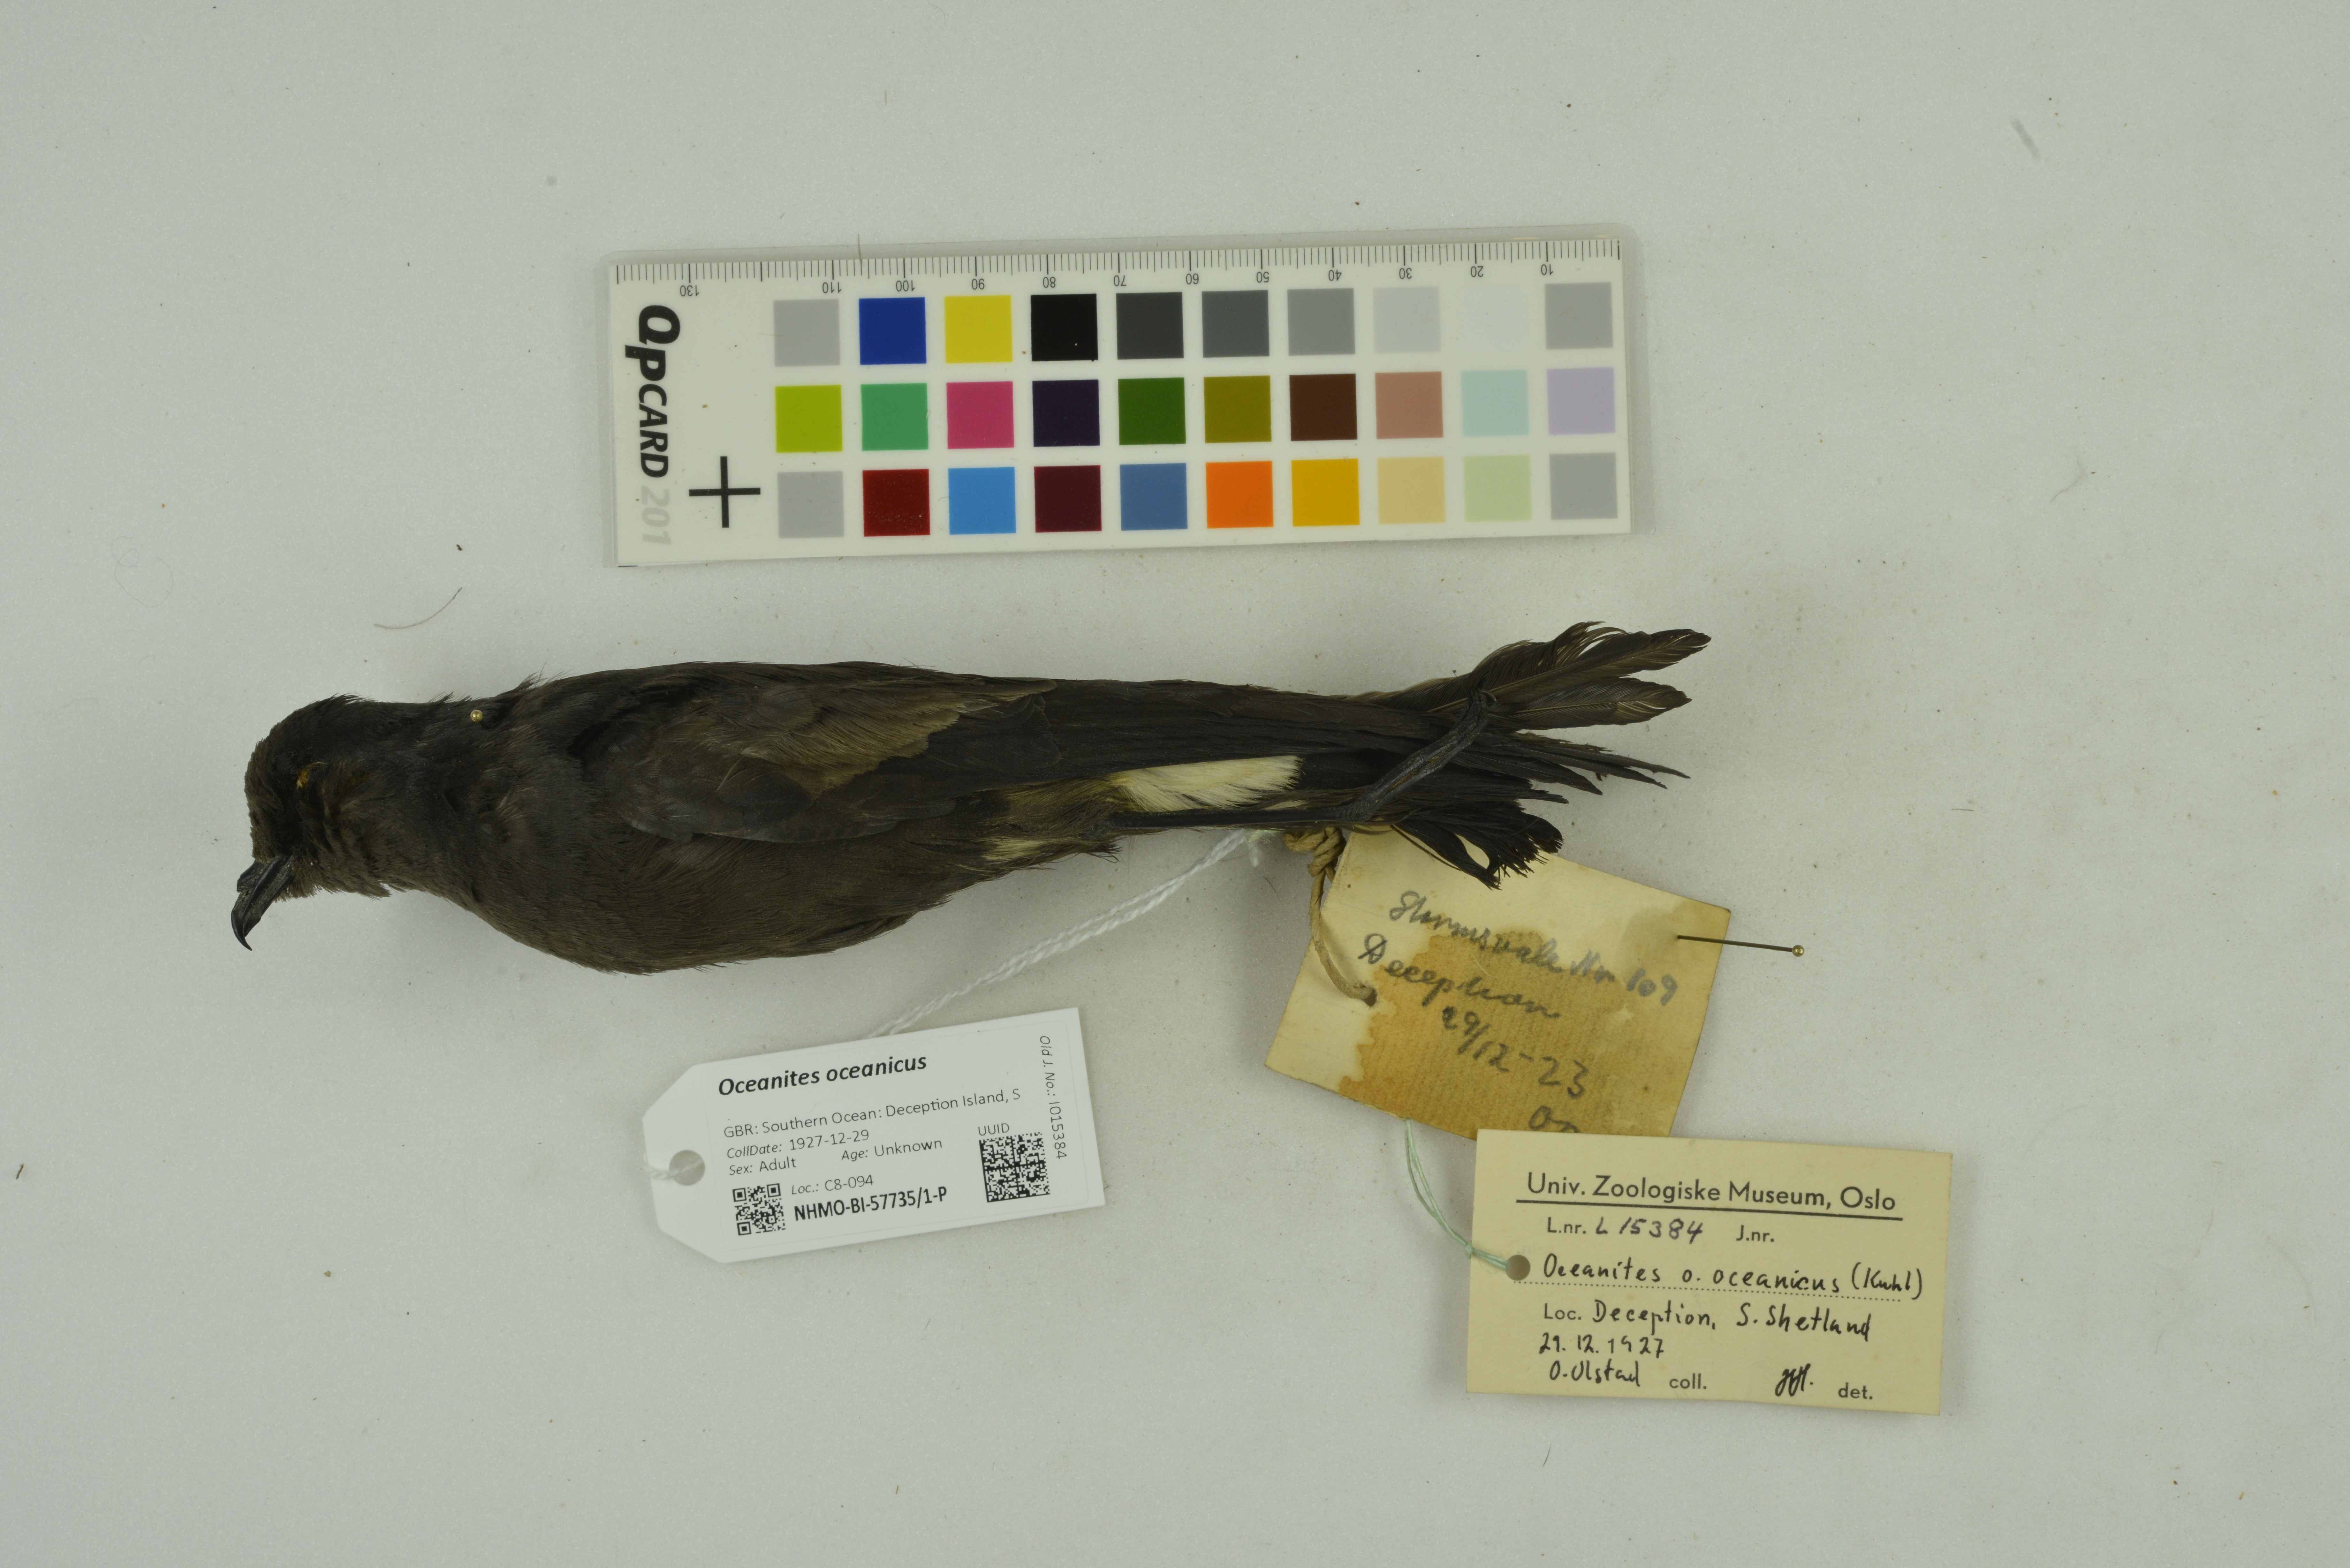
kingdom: Animalia
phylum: Chordata
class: Aves
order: Procellariiformes
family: Hydrobatidae
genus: Oceanites
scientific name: Oceanites oceanicus
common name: Wilson's storm petrel
